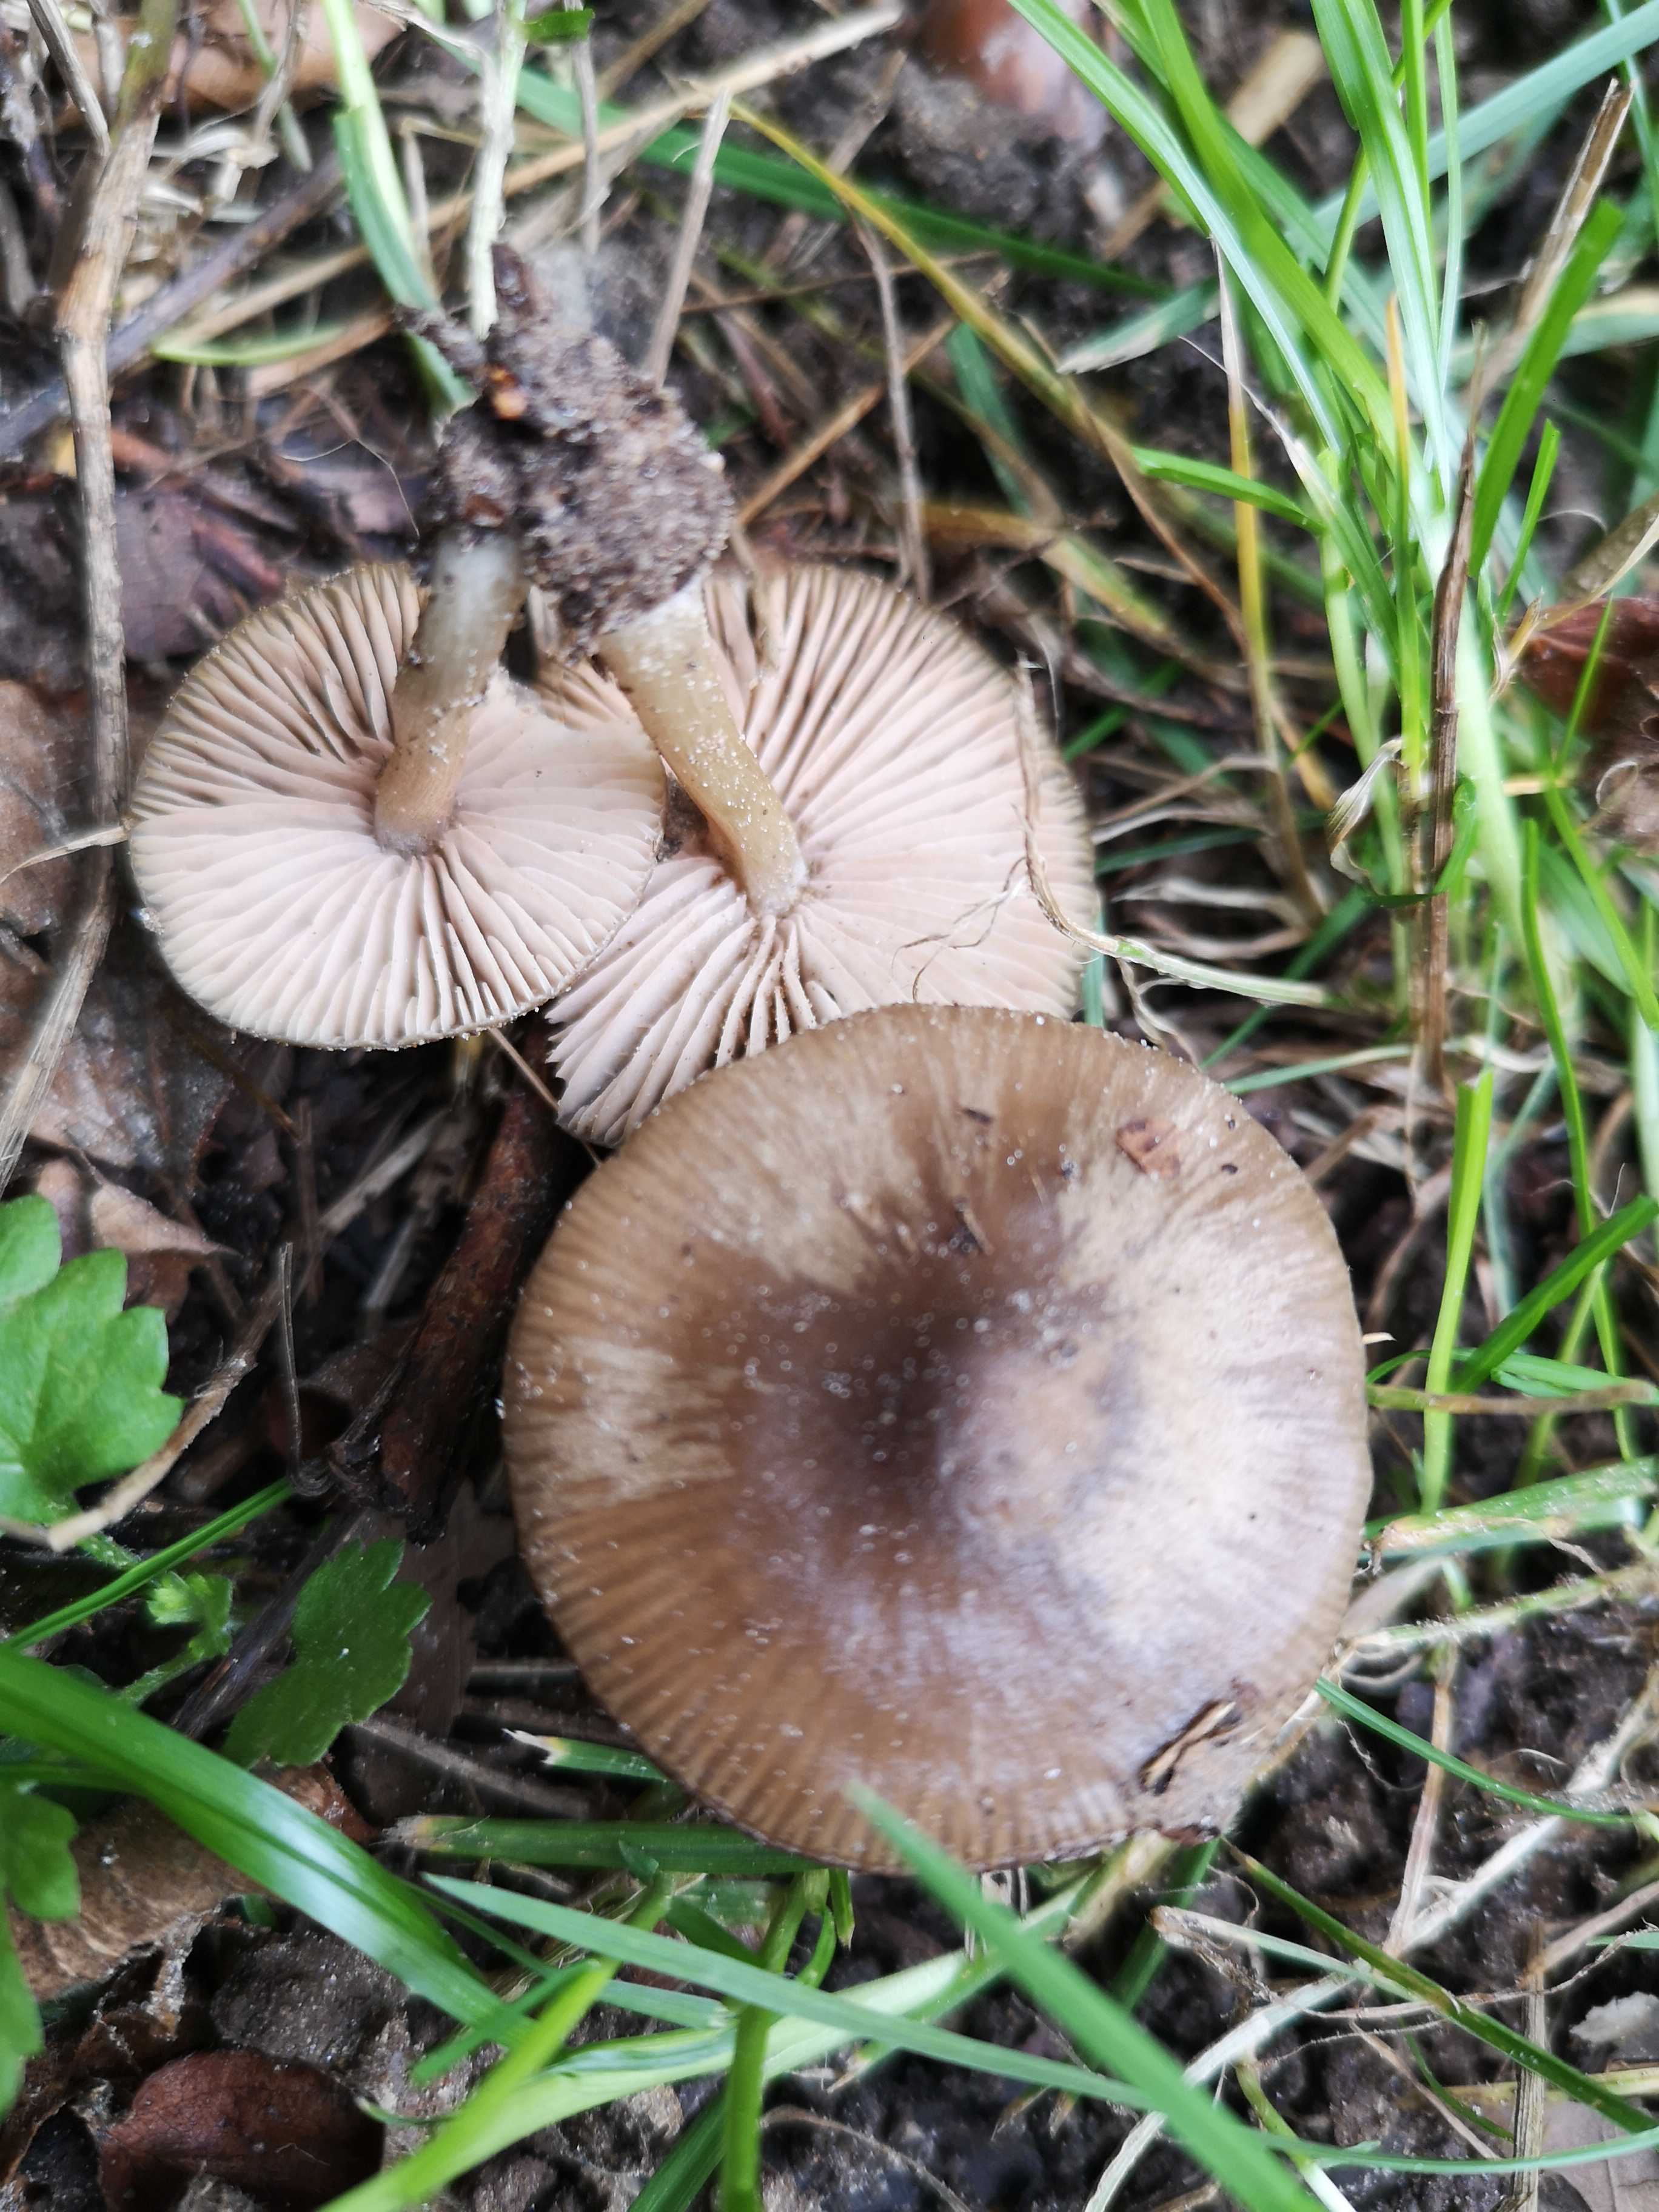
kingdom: Fungi
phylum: Basidiomycota
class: Agaricomycetes
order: Agaricales
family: Entolomataceae
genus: Entoloma
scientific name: Entoloma
